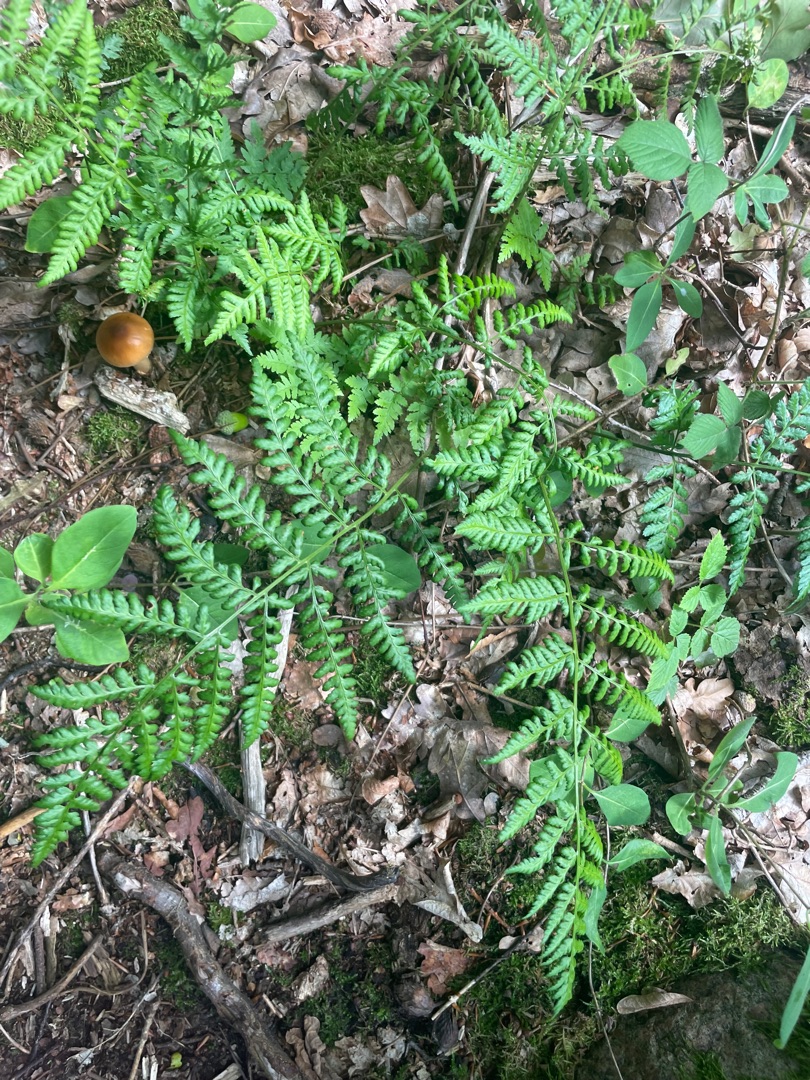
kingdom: Plantae
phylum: Tracheophyta
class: Polypodiopsida
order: Polypodiales
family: Dryopteridaceae
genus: Dryopteris
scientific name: Dryopteris
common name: Mangeløv (Dryopteris-slægten)
